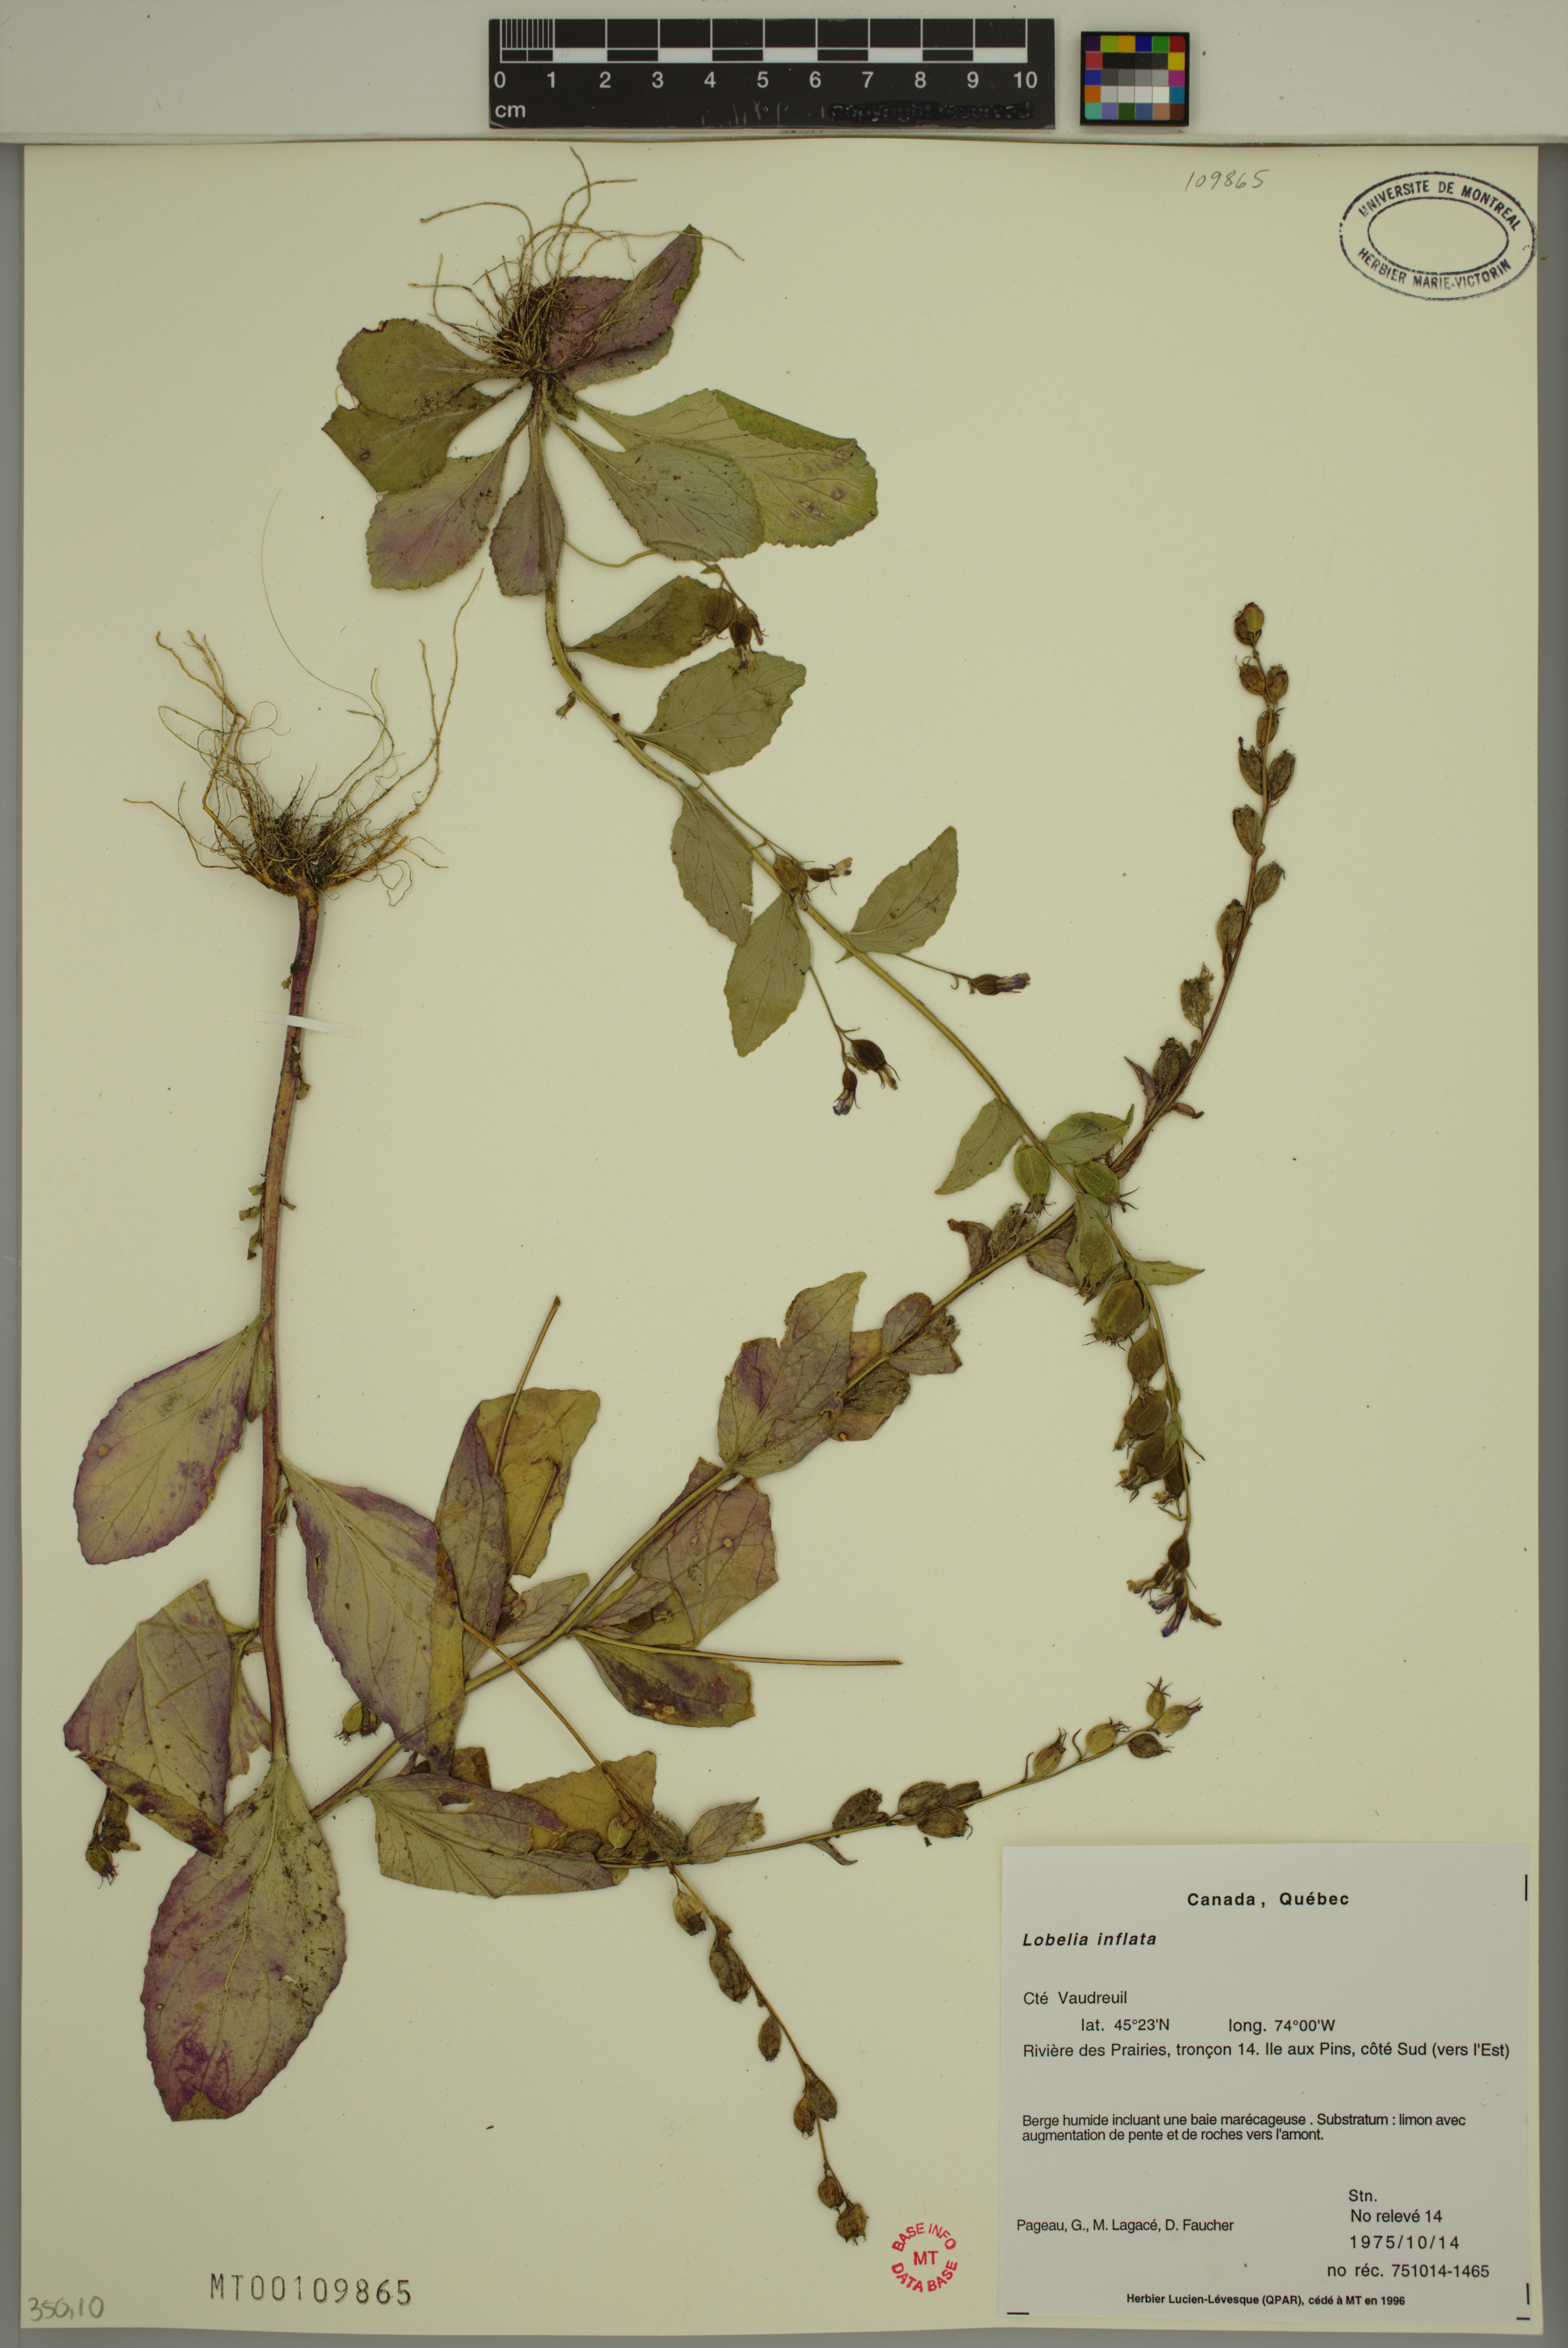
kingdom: Plantae
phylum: Tracheophyta
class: Magnoliopsida
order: Asterales
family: Campanulaceae
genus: Lobelia
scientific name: Lobelia inflata
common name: Indian tobacco
